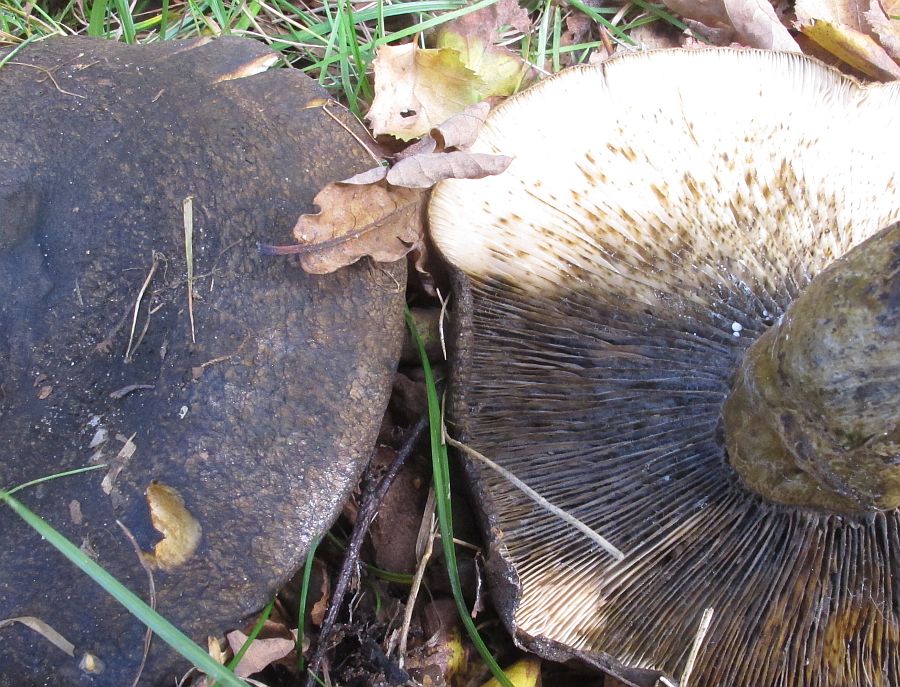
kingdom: Fungi
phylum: Basidiomycota
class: Agaricomycetes
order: Russulales
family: Russulaceae
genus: Lactarius
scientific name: Lactarius necator
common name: manddraber-mælkehat
